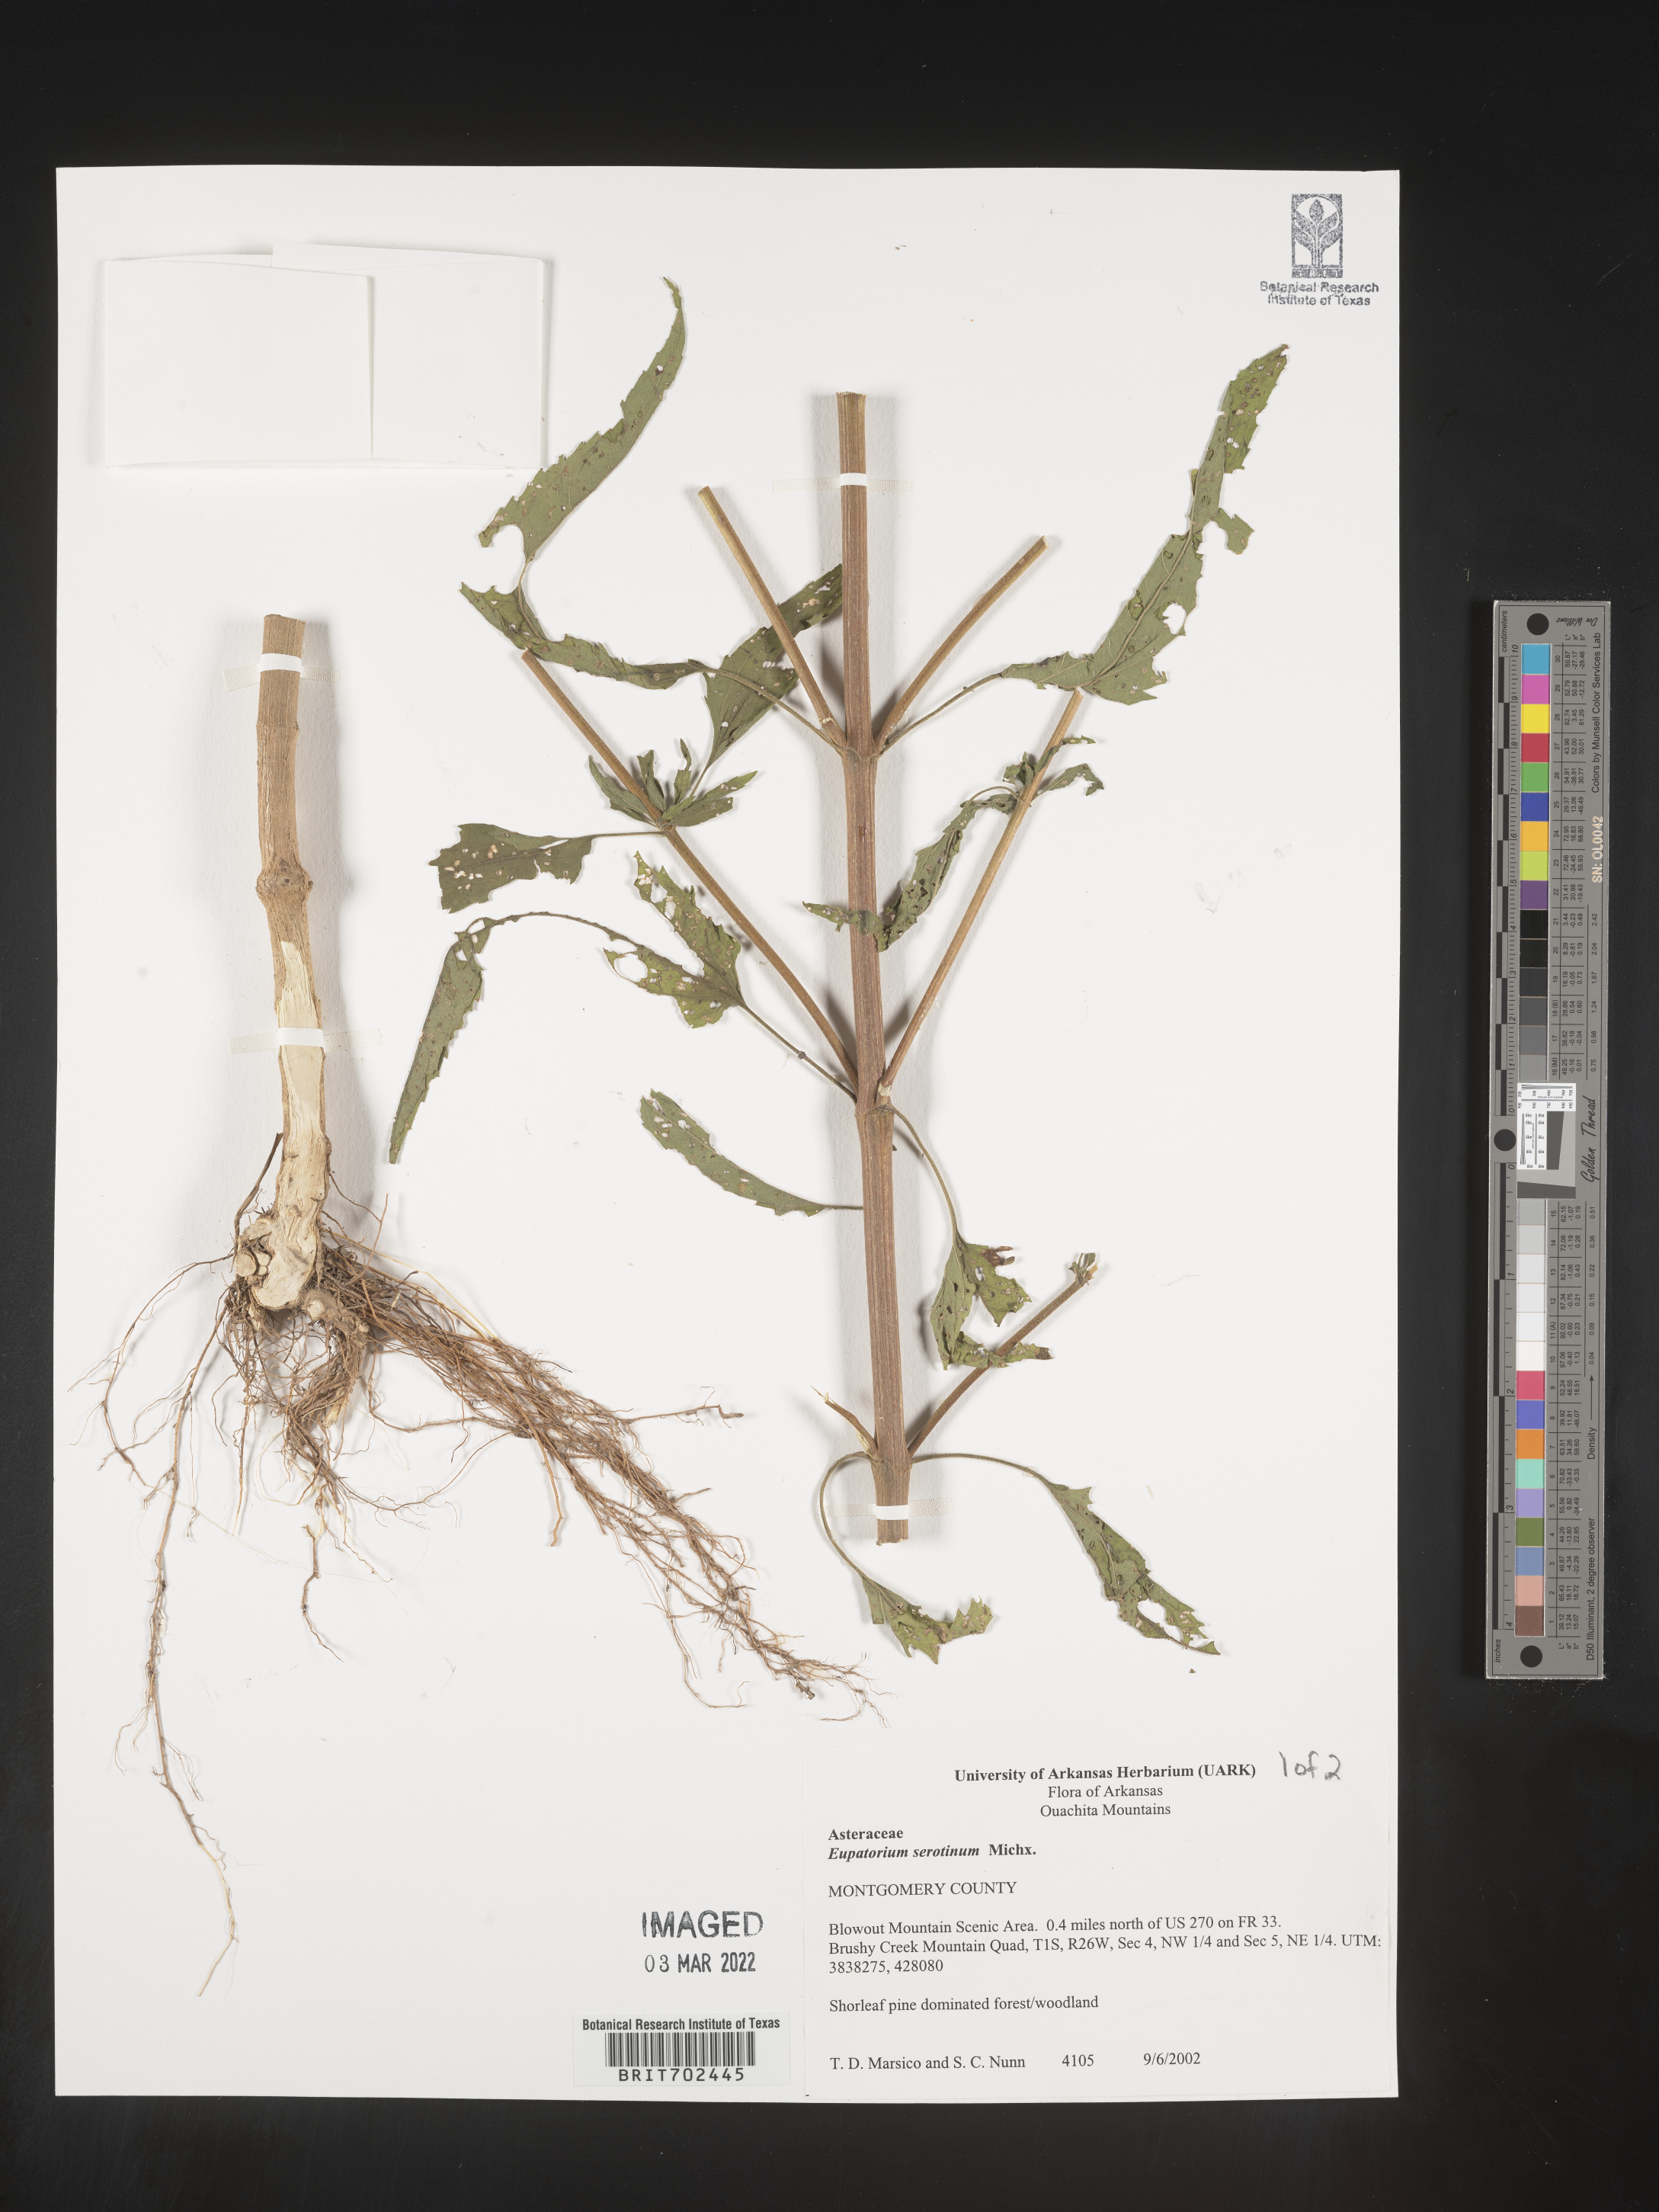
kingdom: Plantae
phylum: Tracheophyta
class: Magnoliopsida
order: Asterales
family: Asteraceae
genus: Eupatorium
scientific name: Eupatorium serotinum
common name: Late boneset
